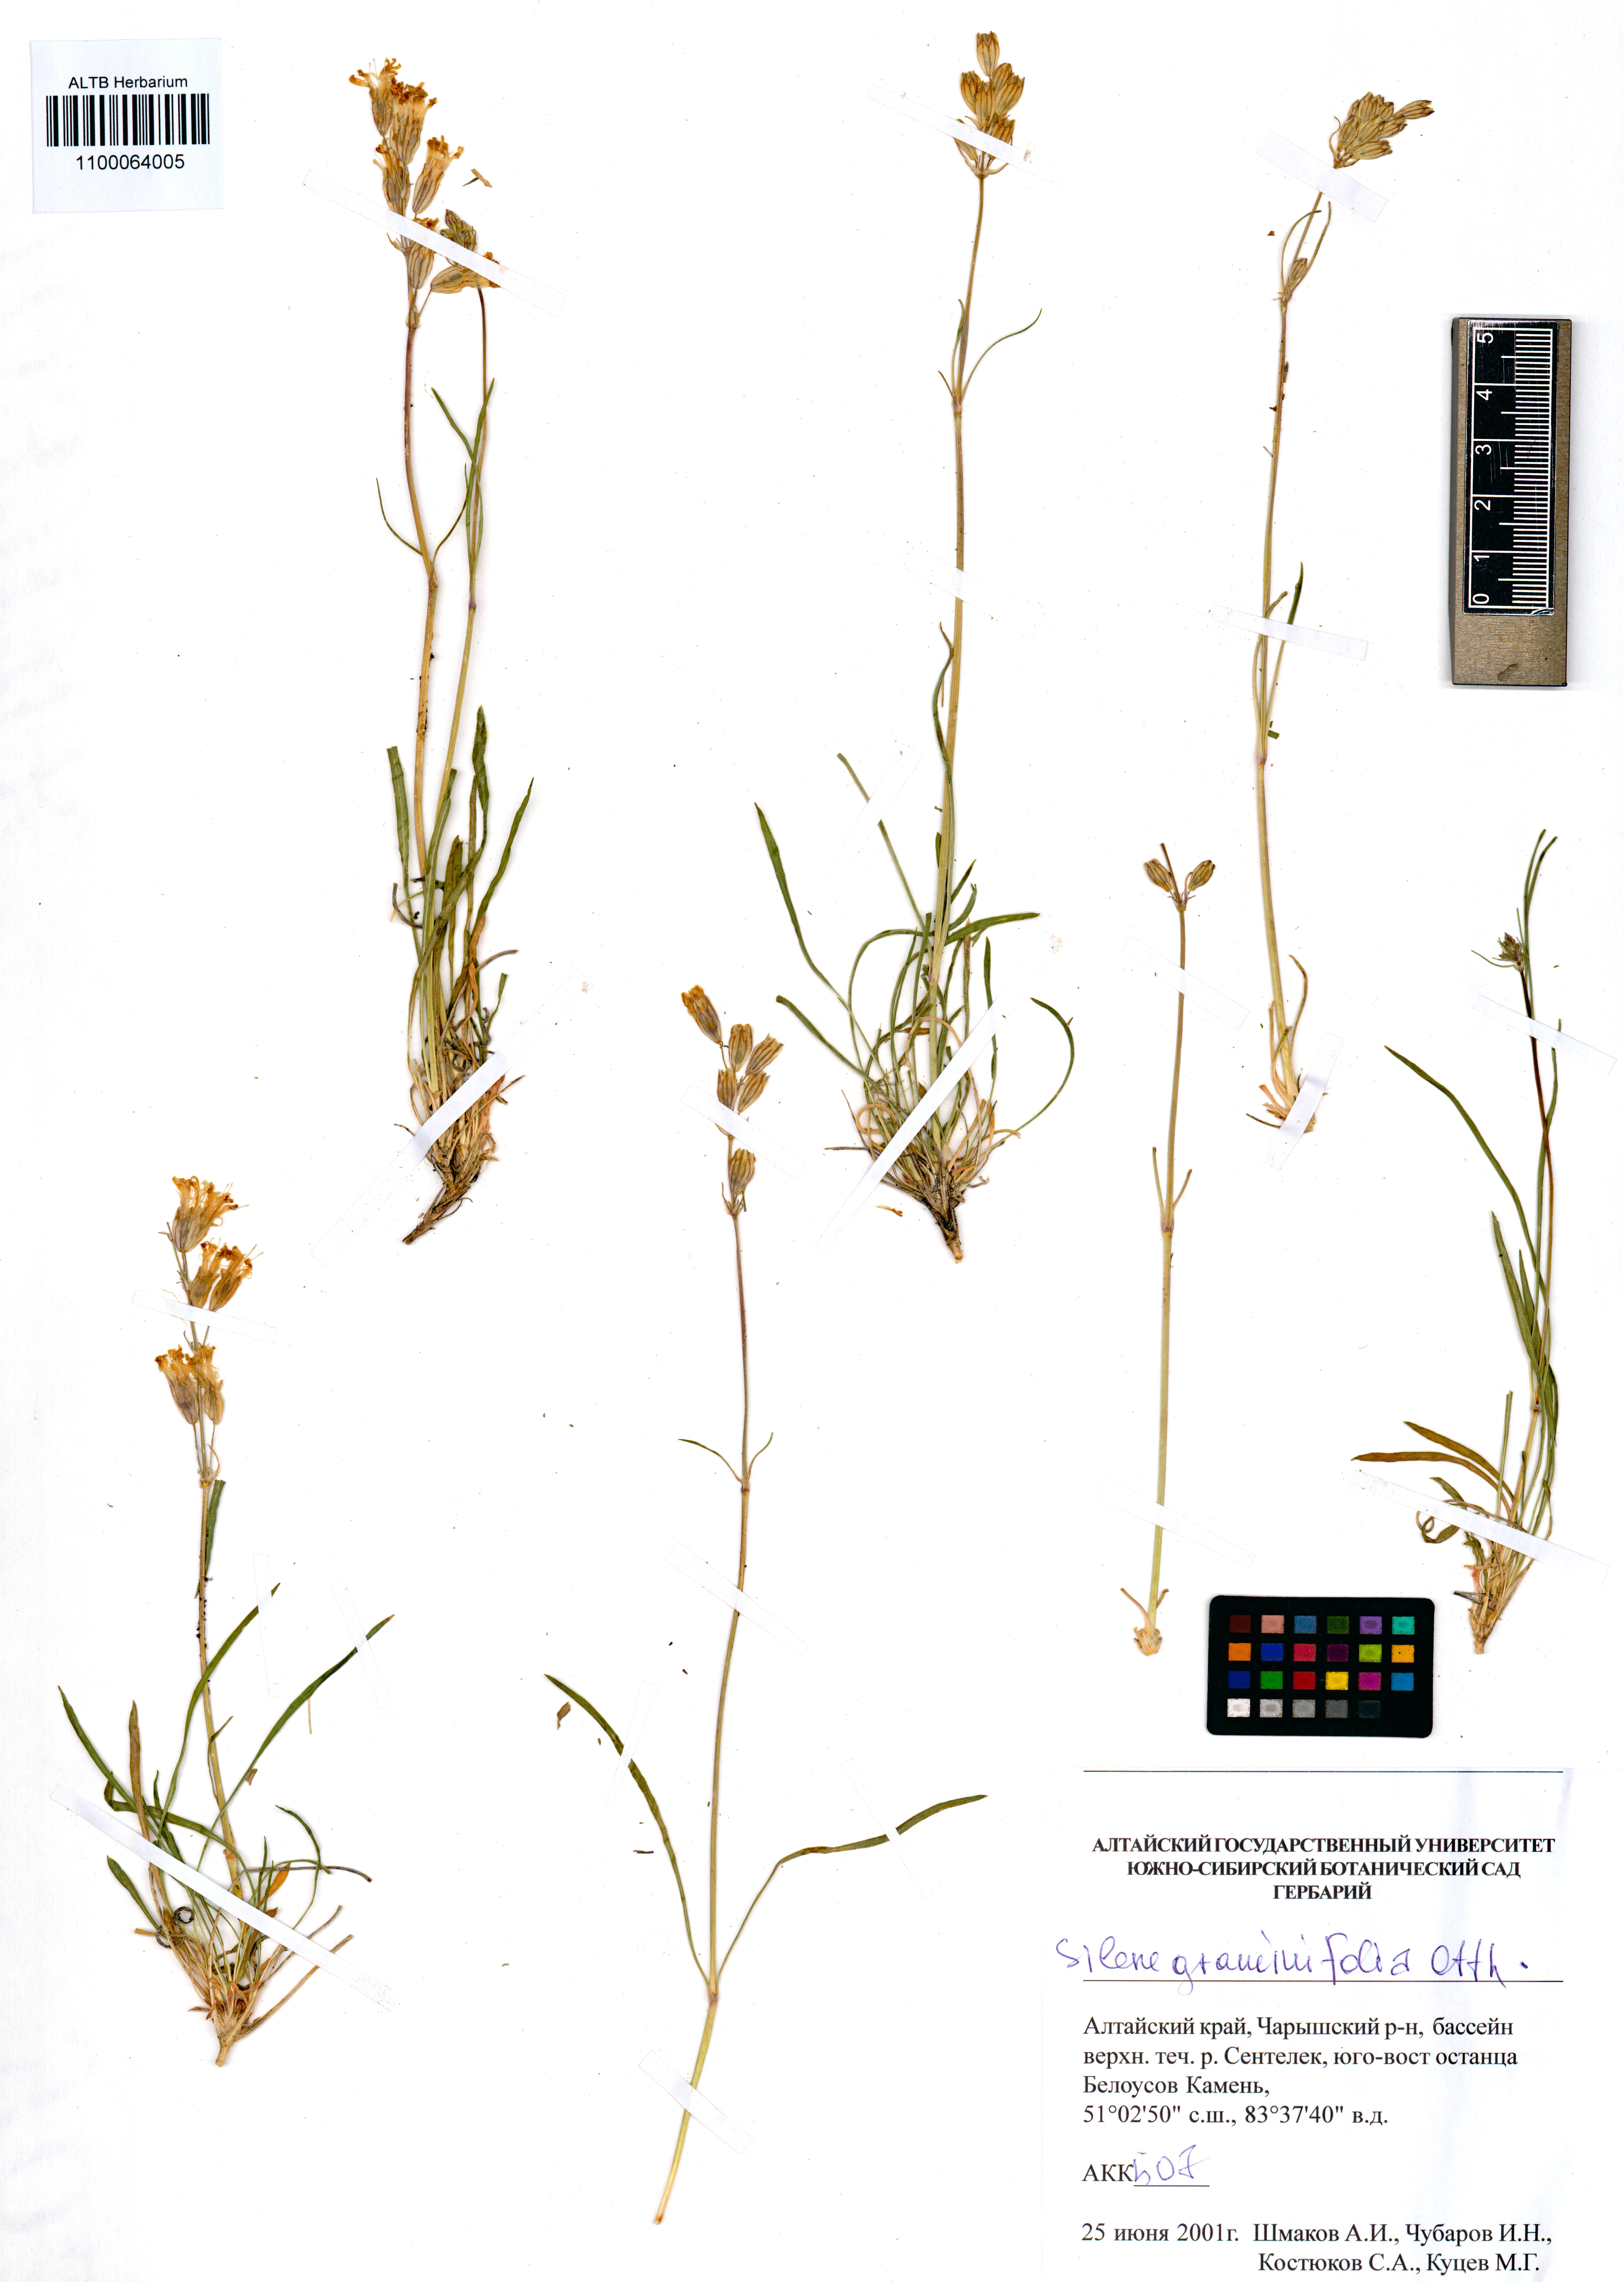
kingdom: Plantae
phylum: Tracheophyta
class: Magnoliopsida
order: Caryophyllales
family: Caryophyllaceae
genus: Silene
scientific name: Silene graminifolia
